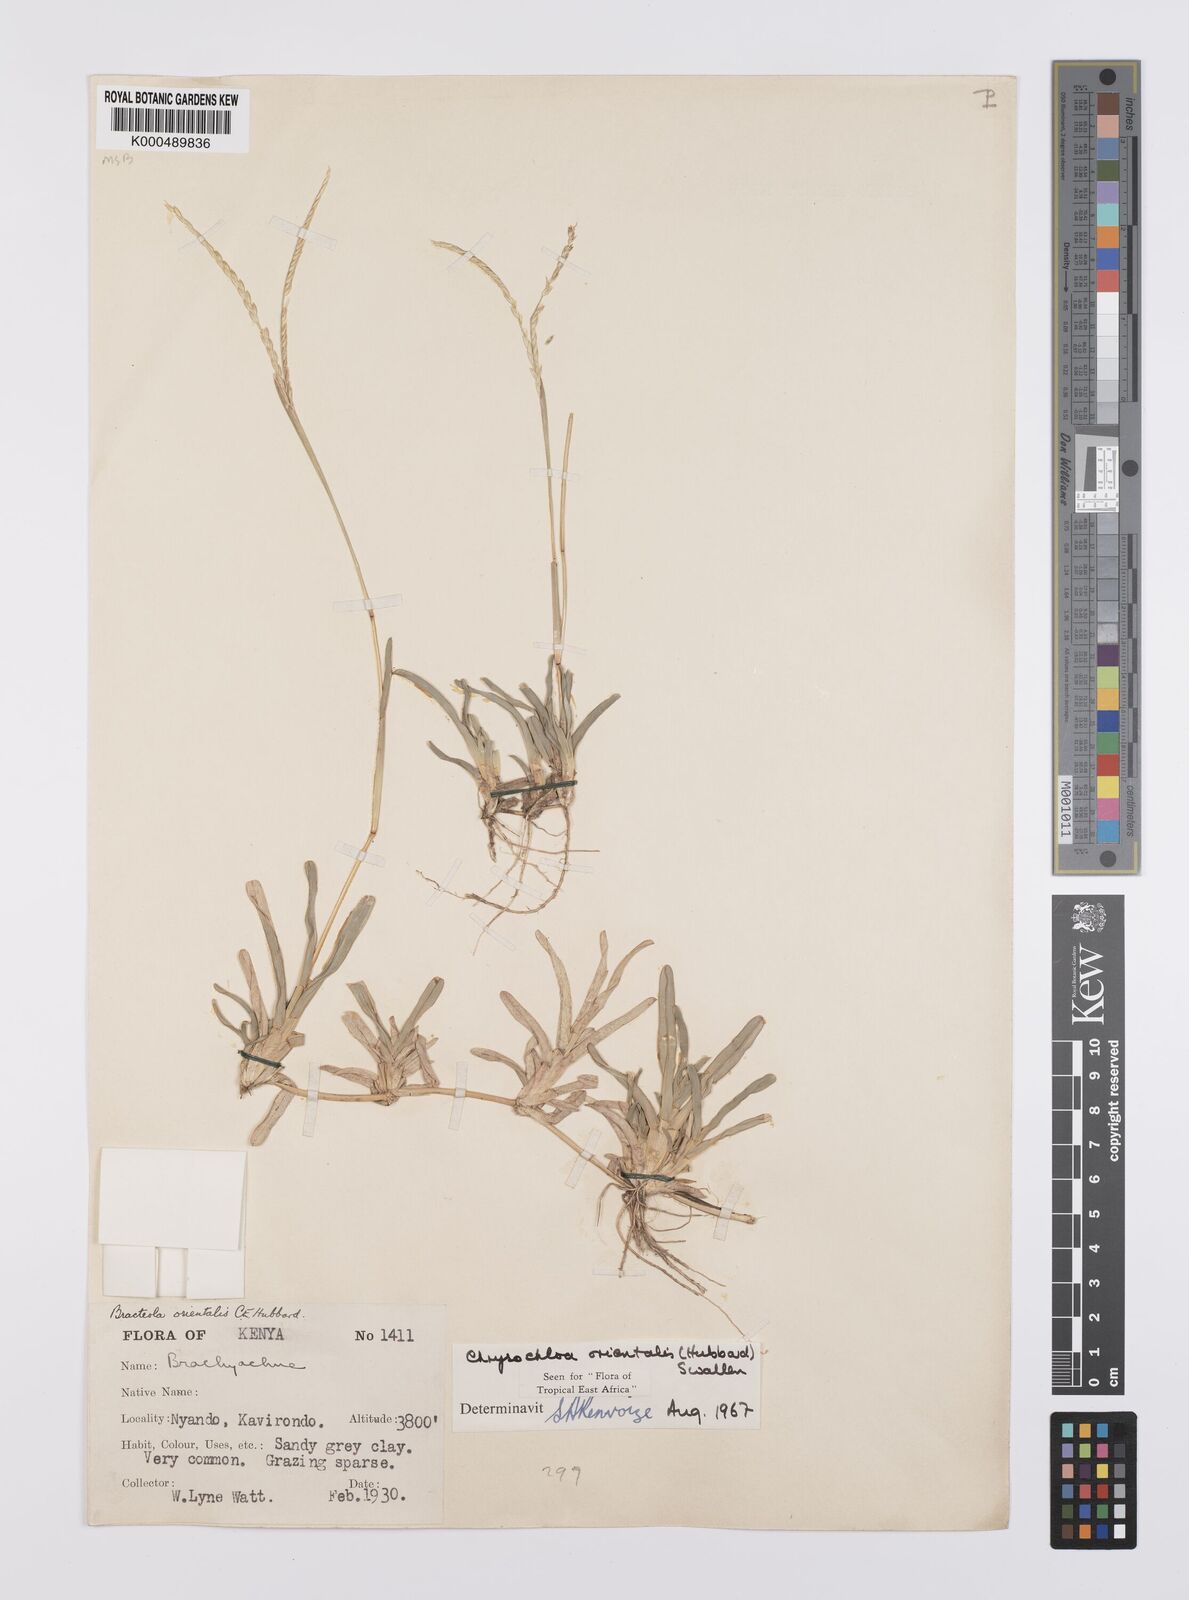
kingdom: Plantae
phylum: Tracheophyta
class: Liliopsida
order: Poales
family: Poaceae
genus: Chrysochloa
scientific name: Chrysochloa
